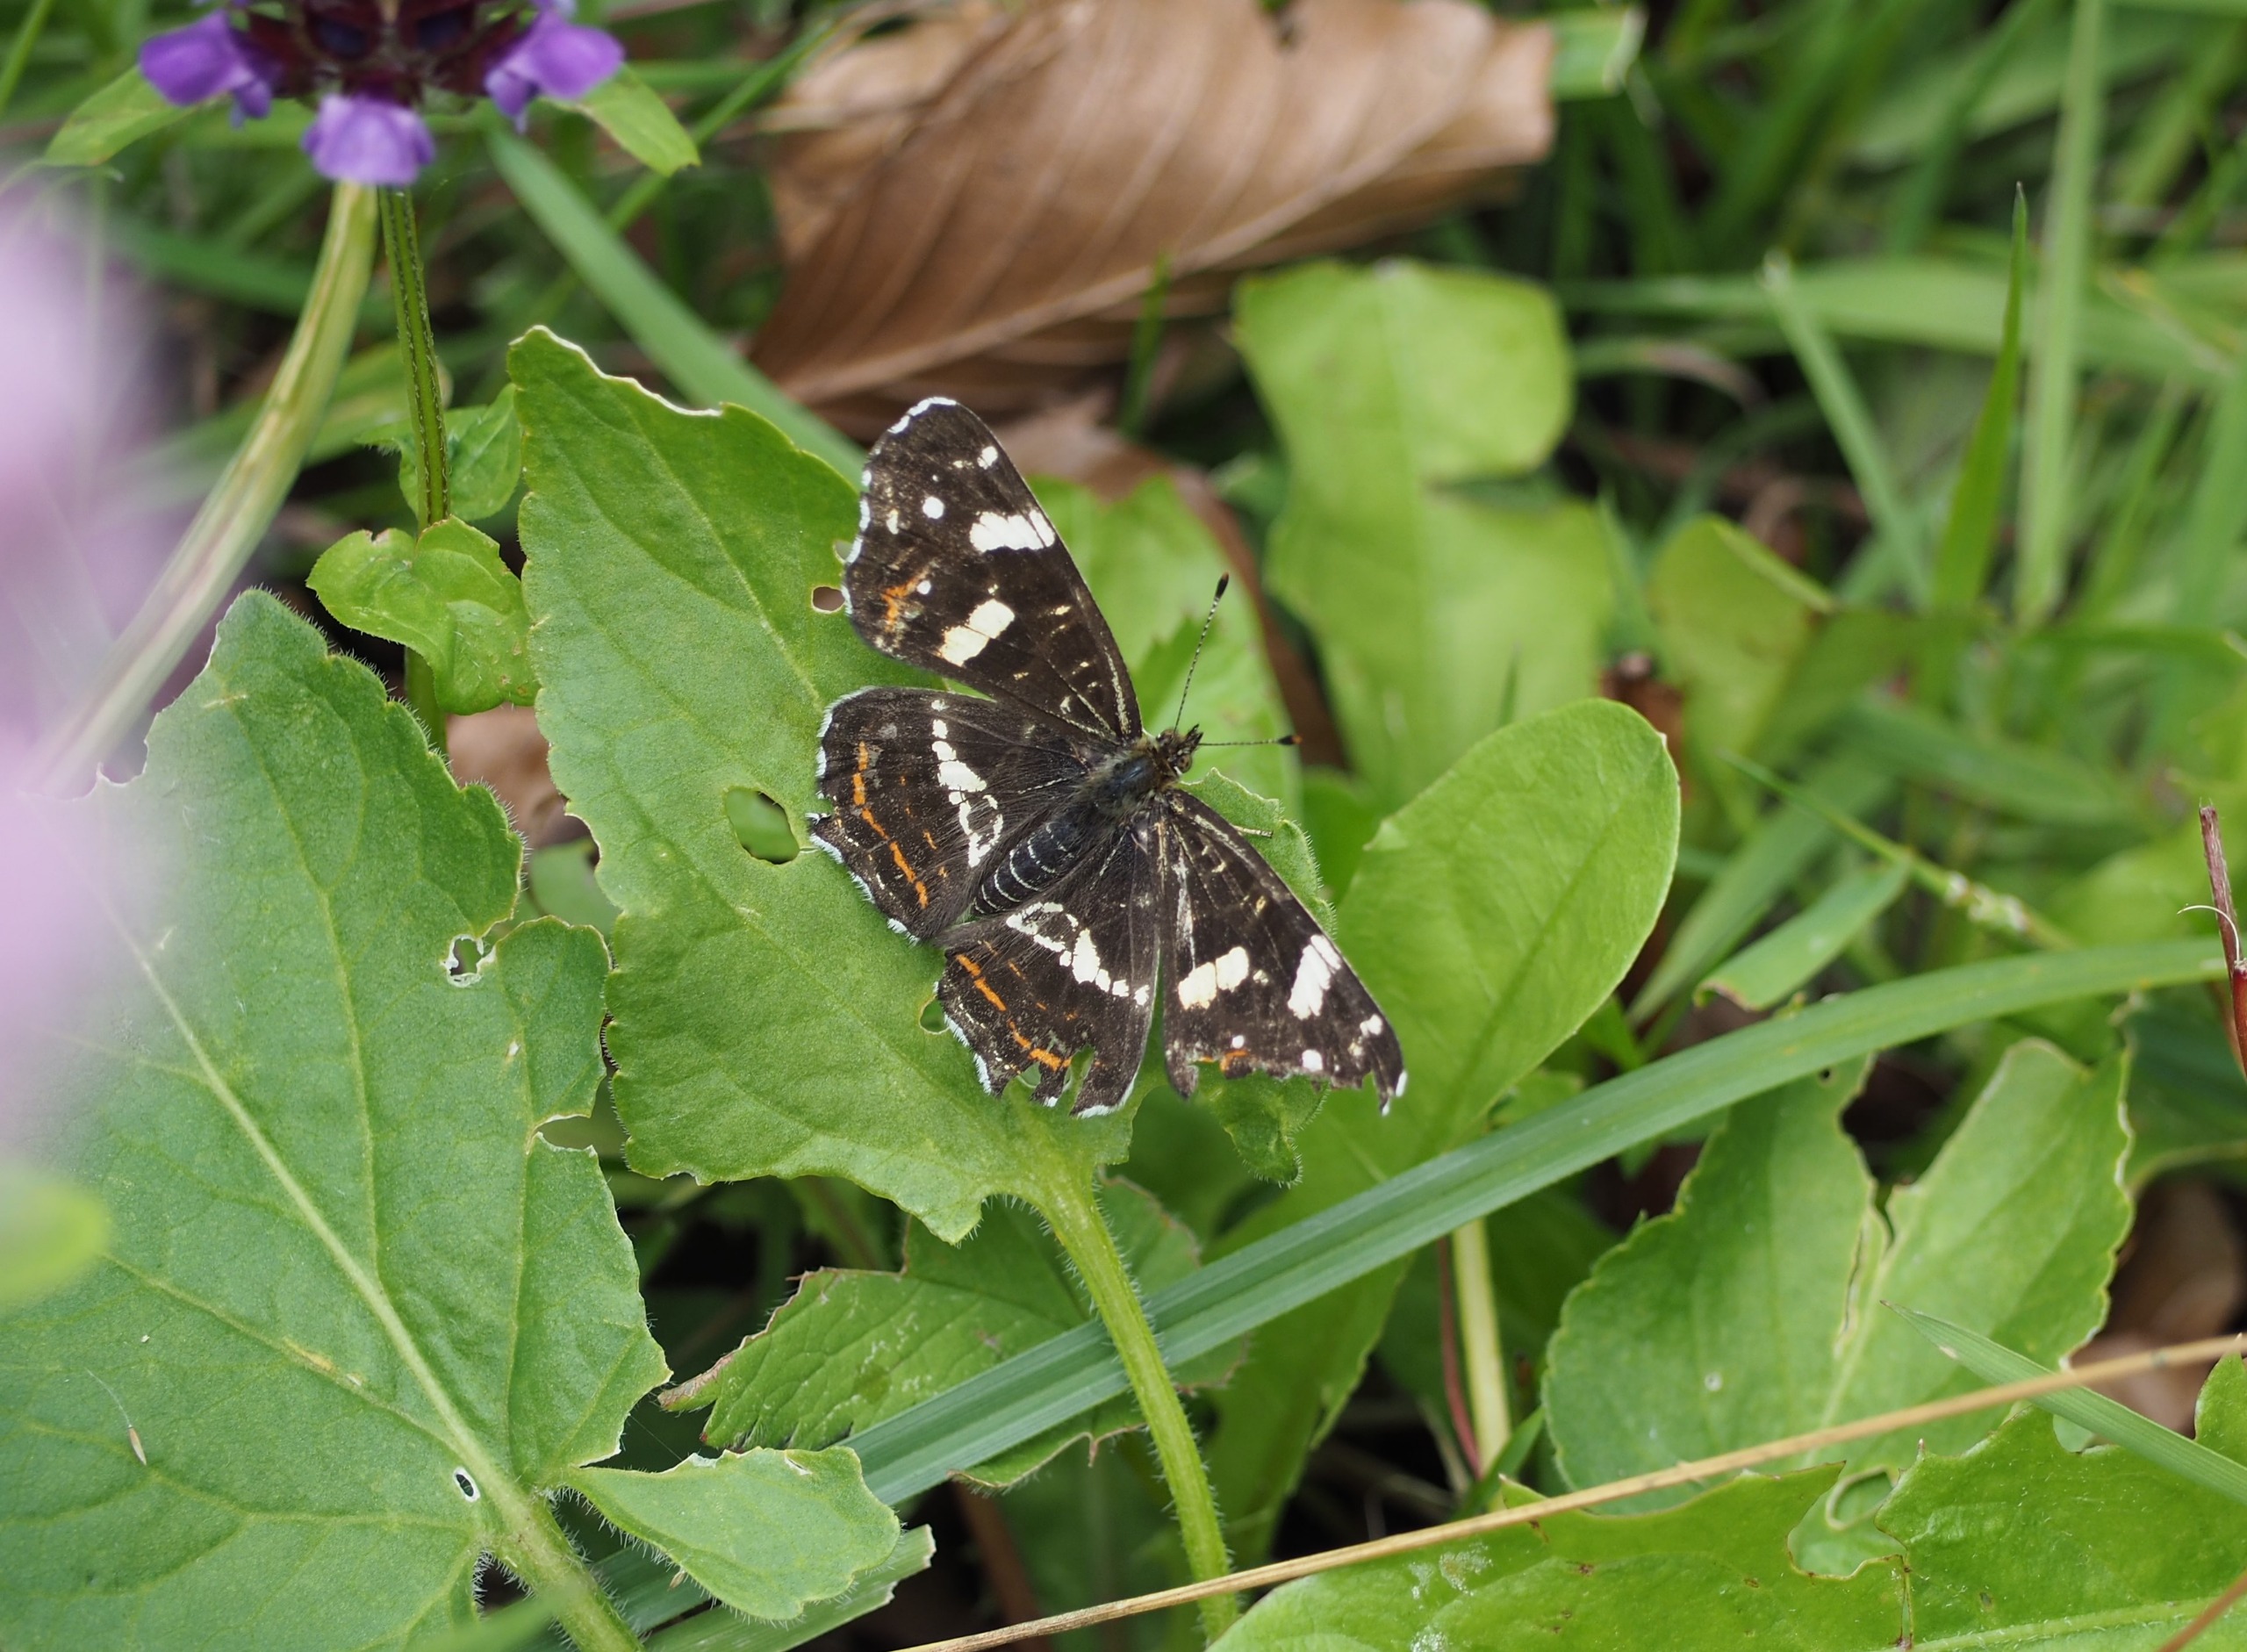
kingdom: Animalia
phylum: Arthropoda
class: Insecta
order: Lepidoptera
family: Nymphalidae
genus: Araschnia
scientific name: Araschnia levana
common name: Nældesommerfugl
